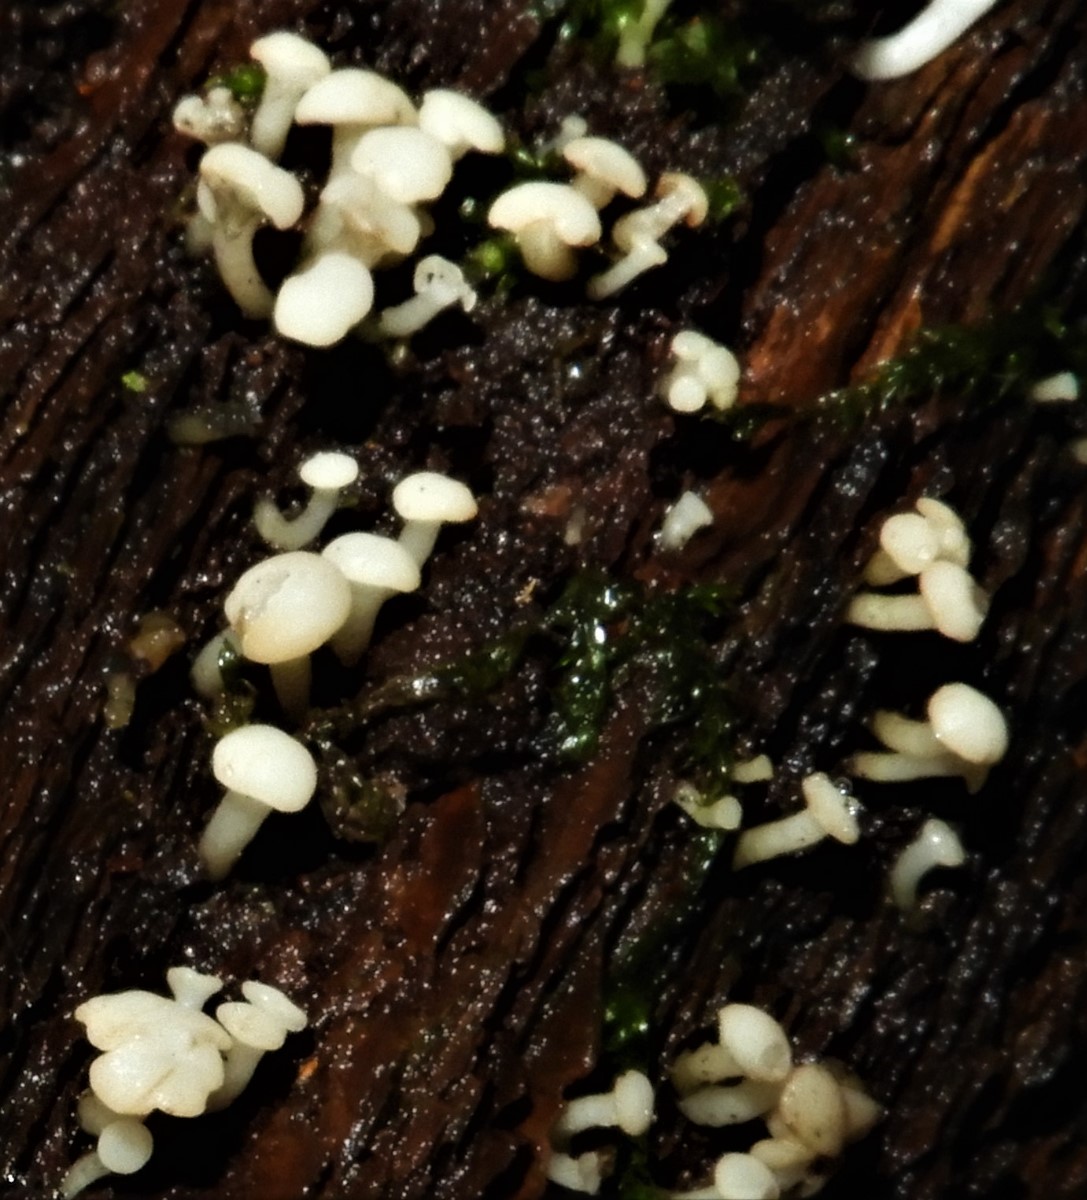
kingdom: Fungi
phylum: Ascomycota
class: Leotiomycetes
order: Helotiales
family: Tricladiaceae
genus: Cudoniella
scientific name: Cudoniella acicularis
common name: ege-dyndskive
